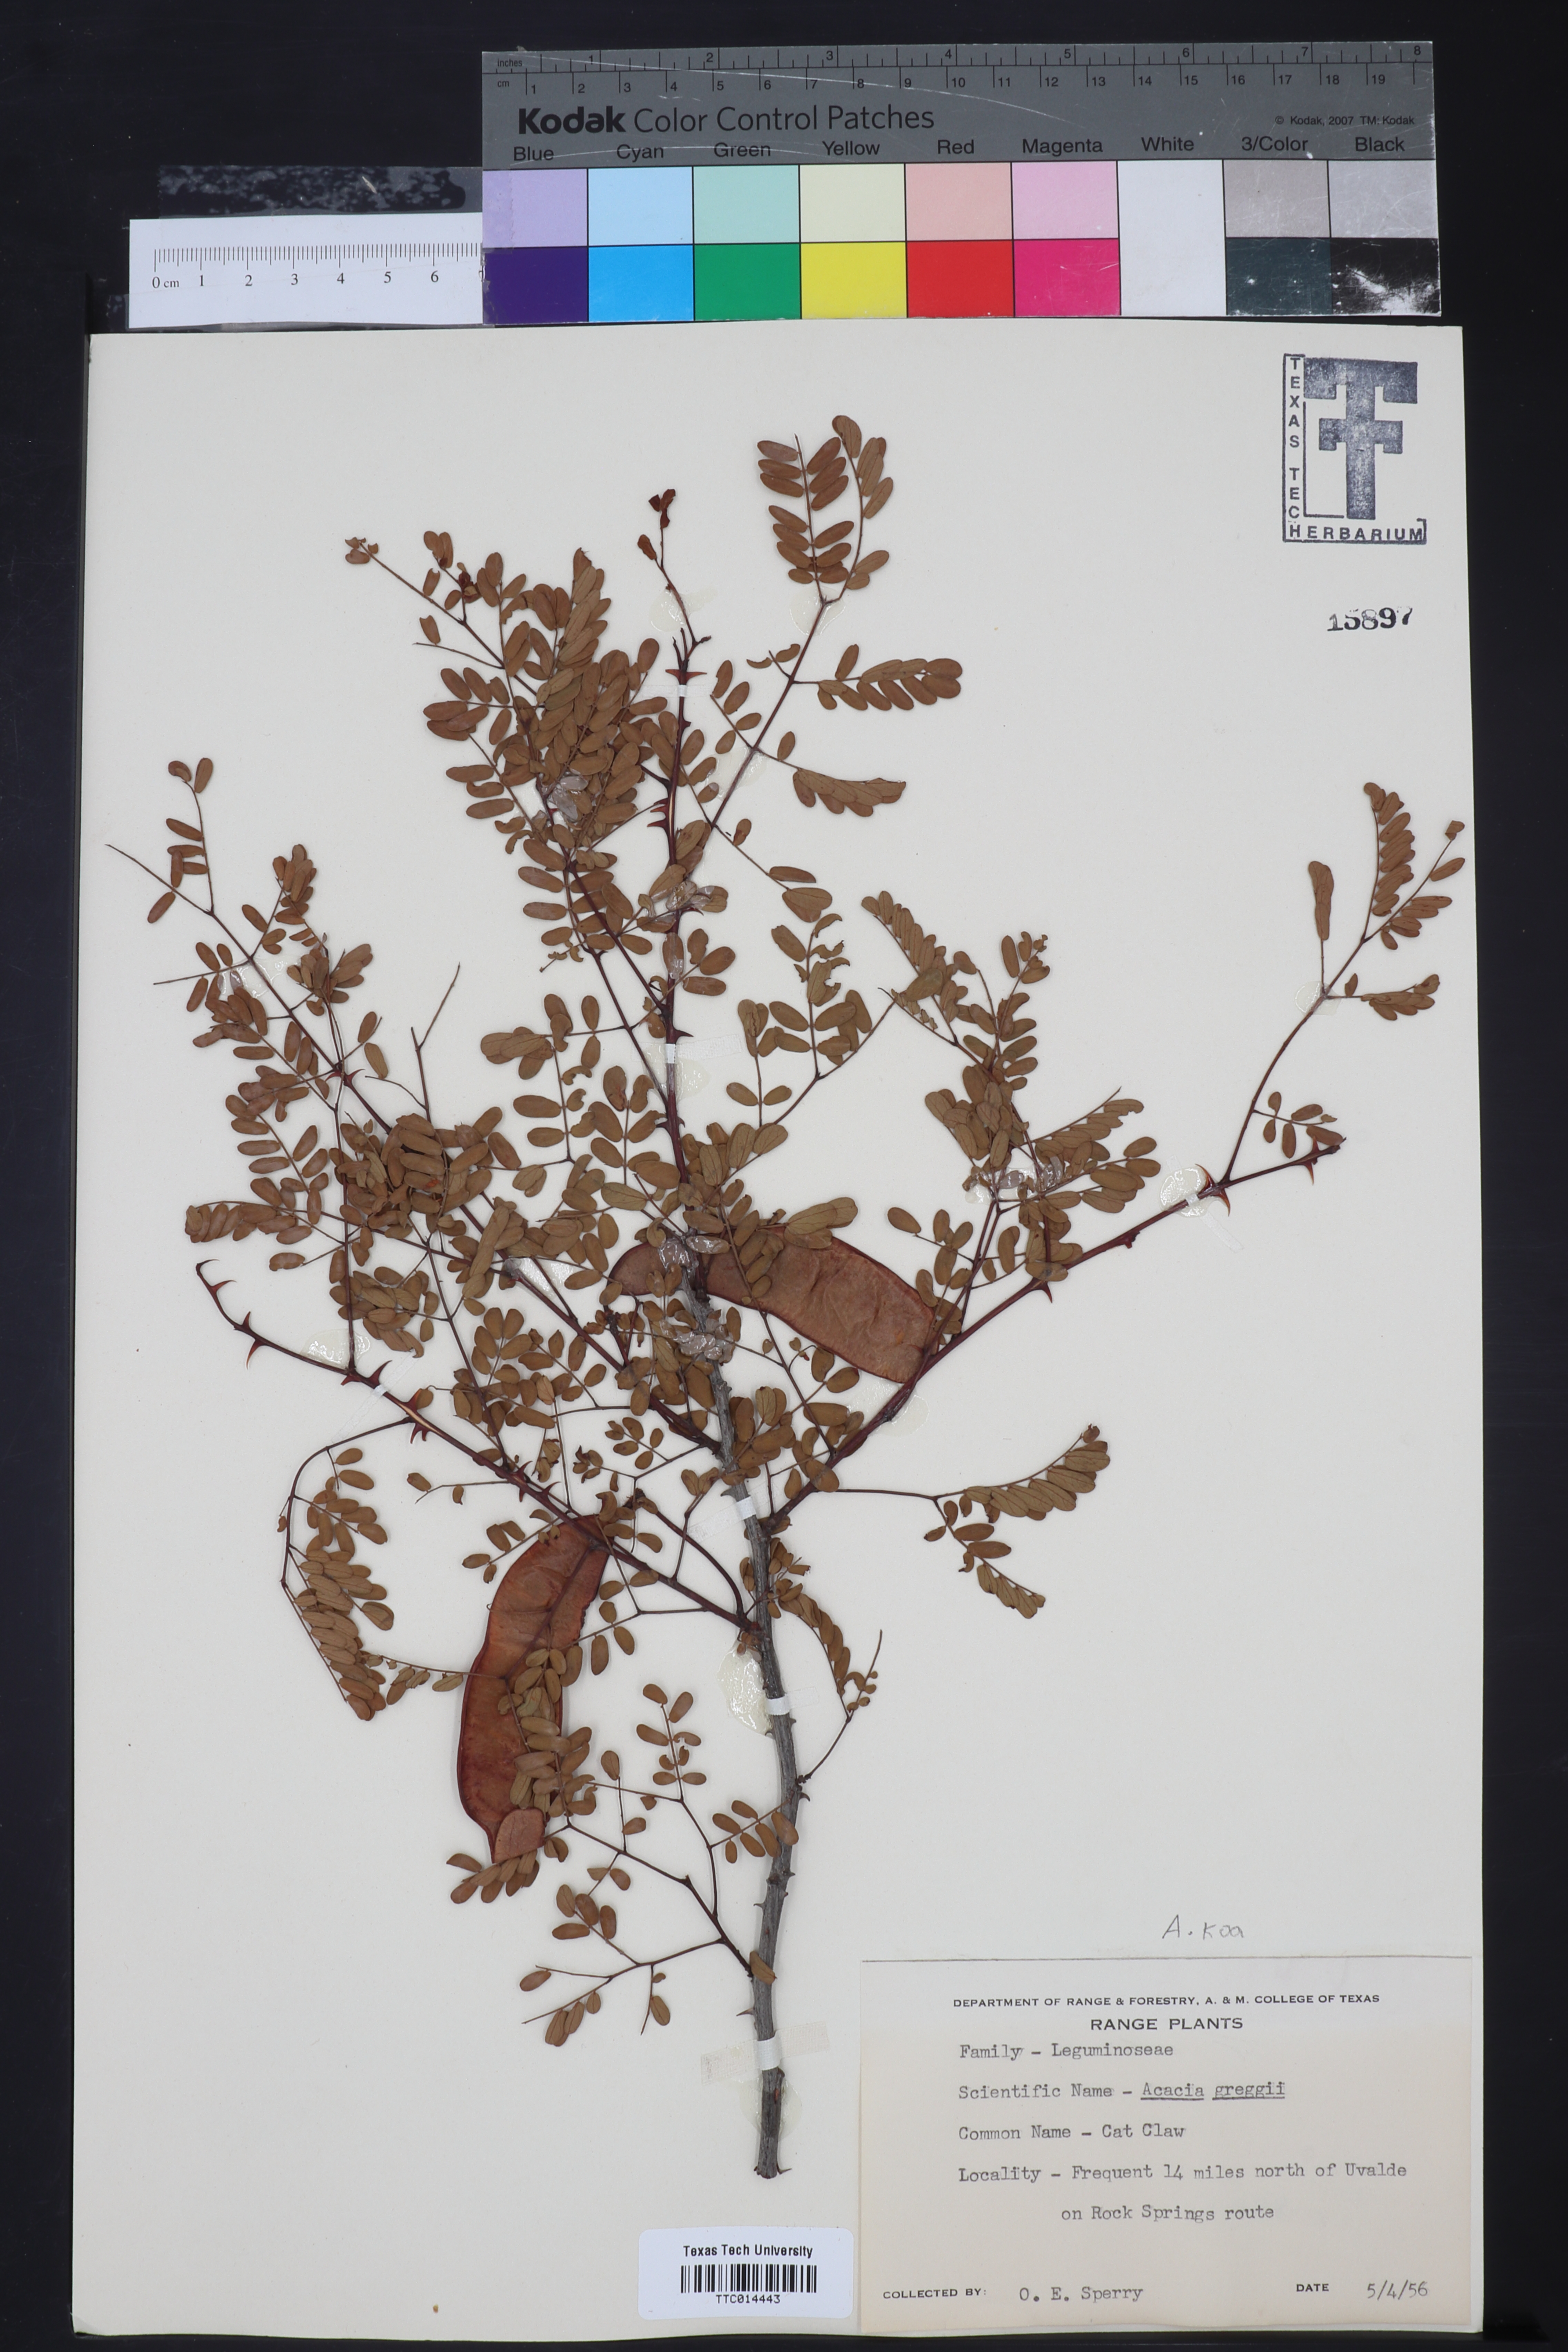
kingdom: Plantae
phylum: Tracheophyta
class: Magnoliopsida
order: Fabales
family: Fabaceae
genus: Senegalia
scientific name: Senegalia greggii
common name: Texas-mimosa
